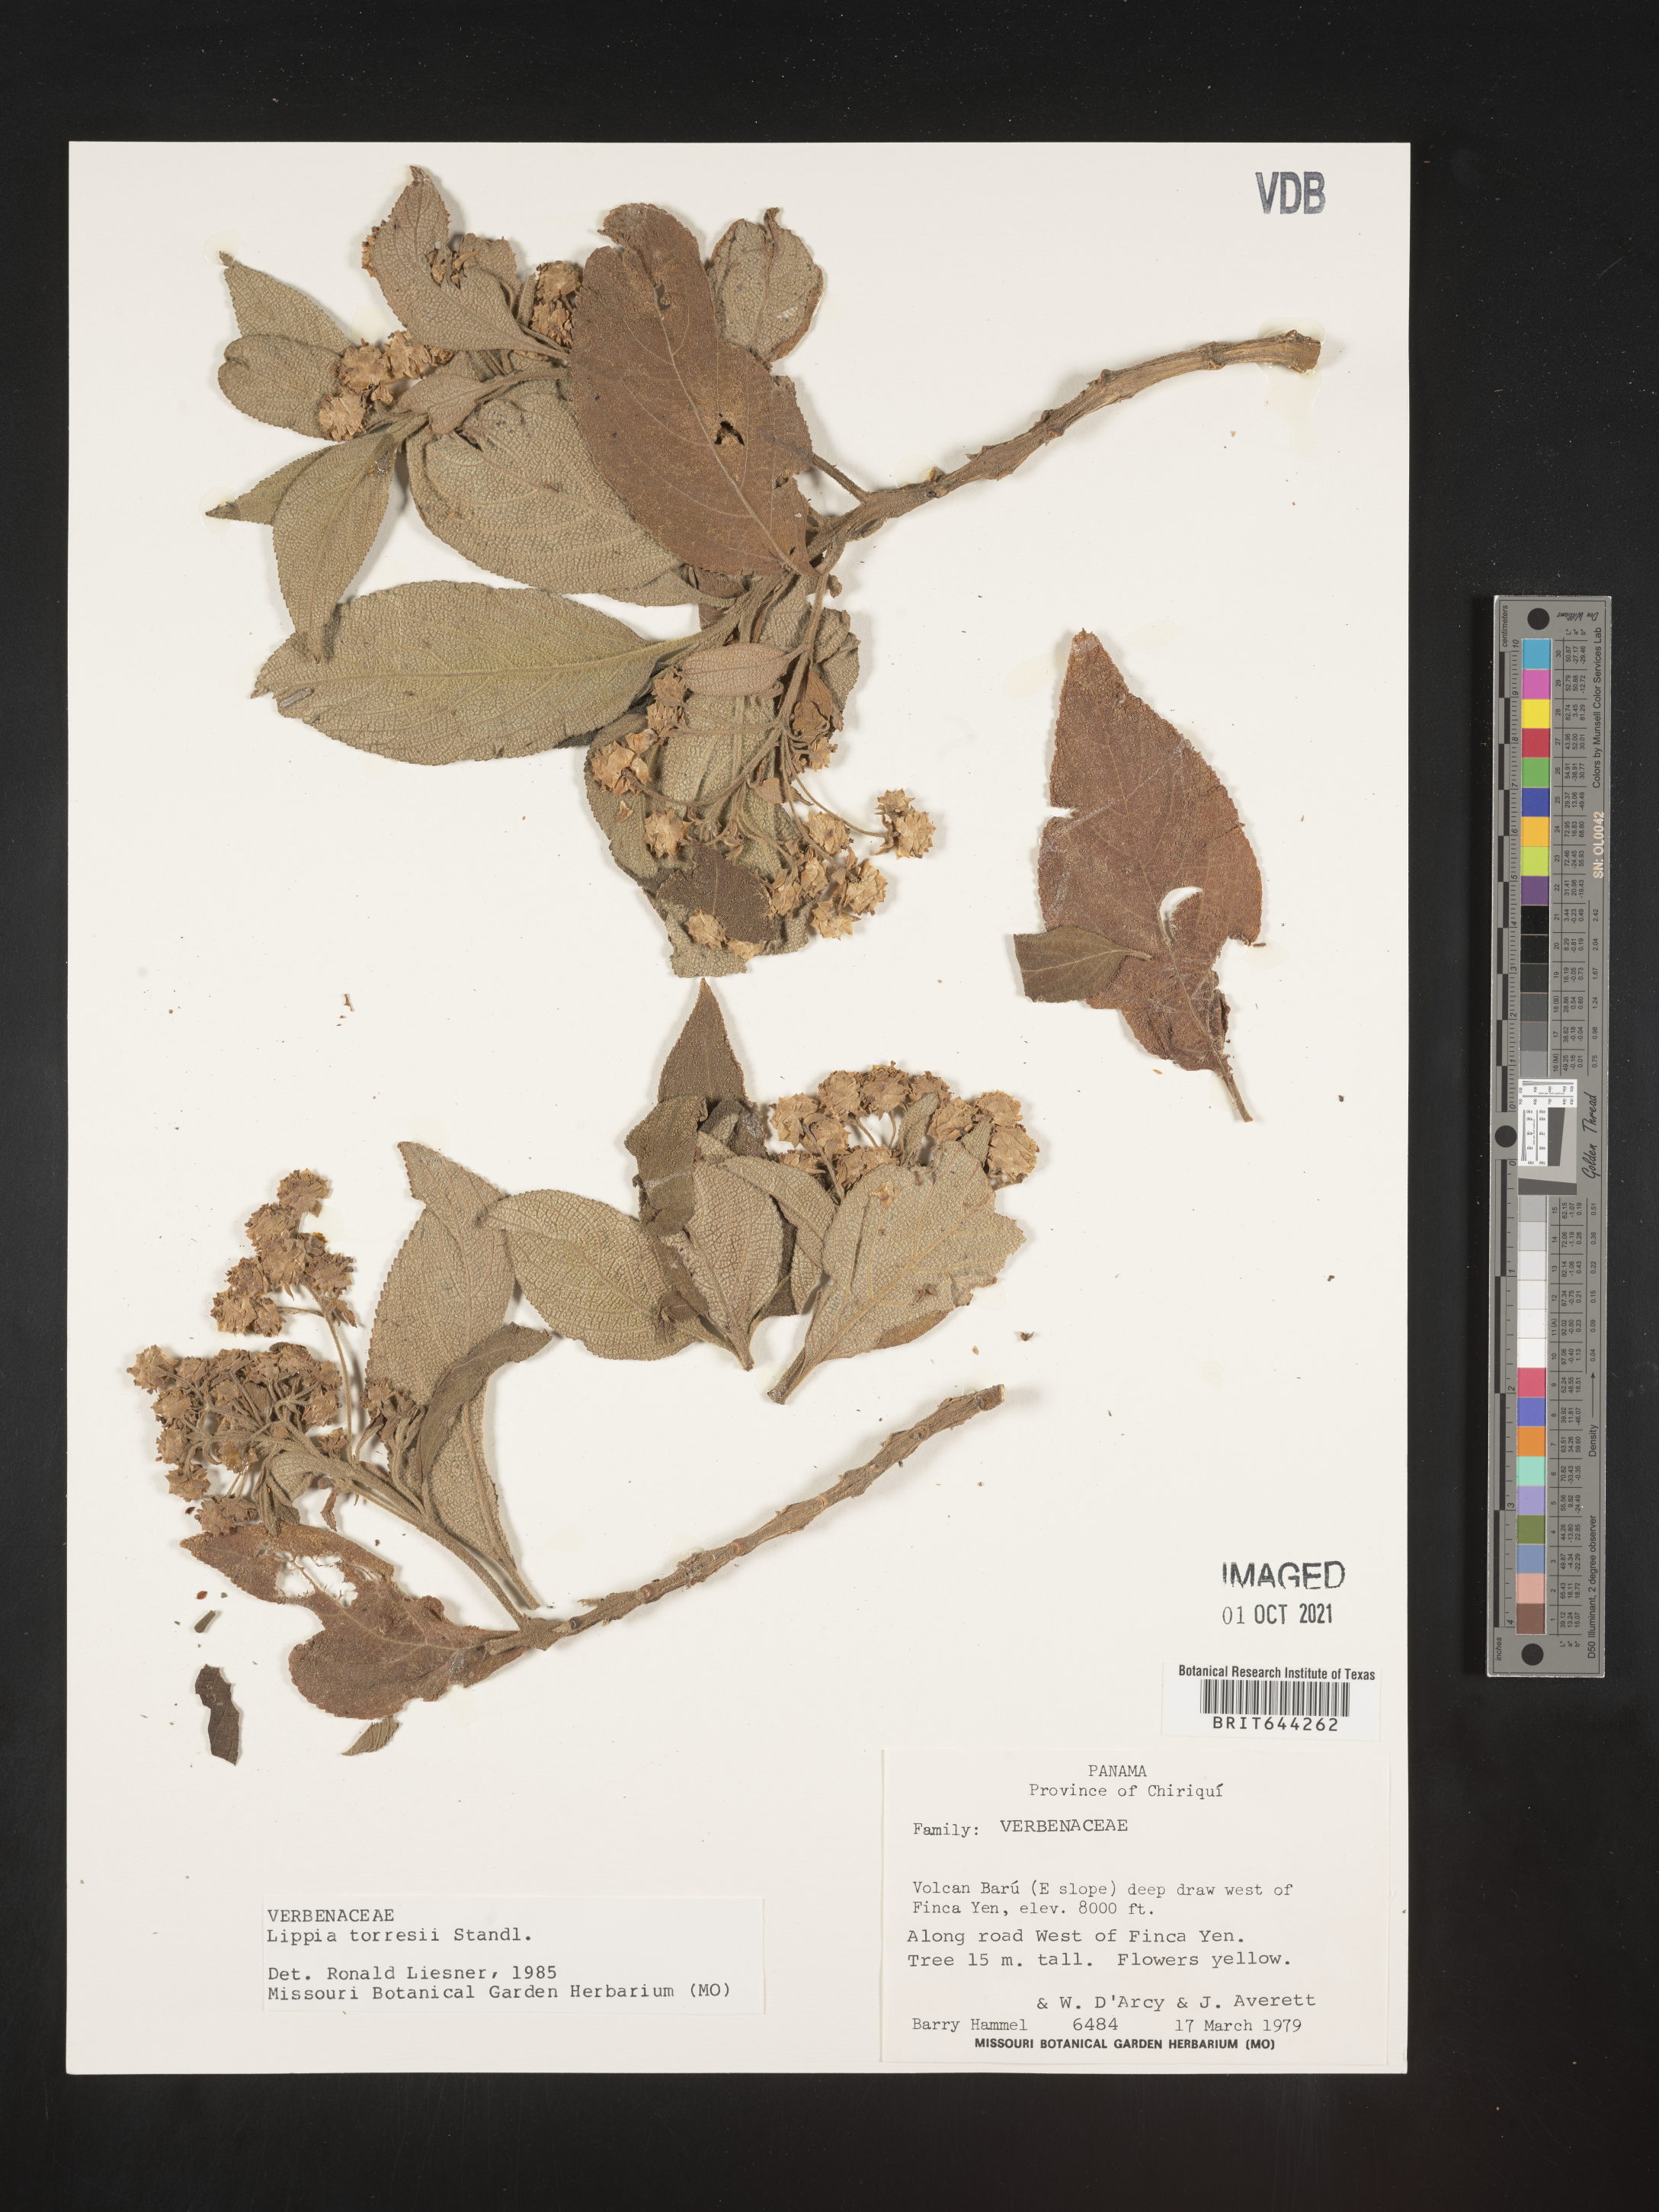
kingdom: Plantae
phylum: Tracheophyta
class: Magnoliopsida
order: Lamiales
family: Verbenaceae
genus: Lippia
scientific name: Lippia
